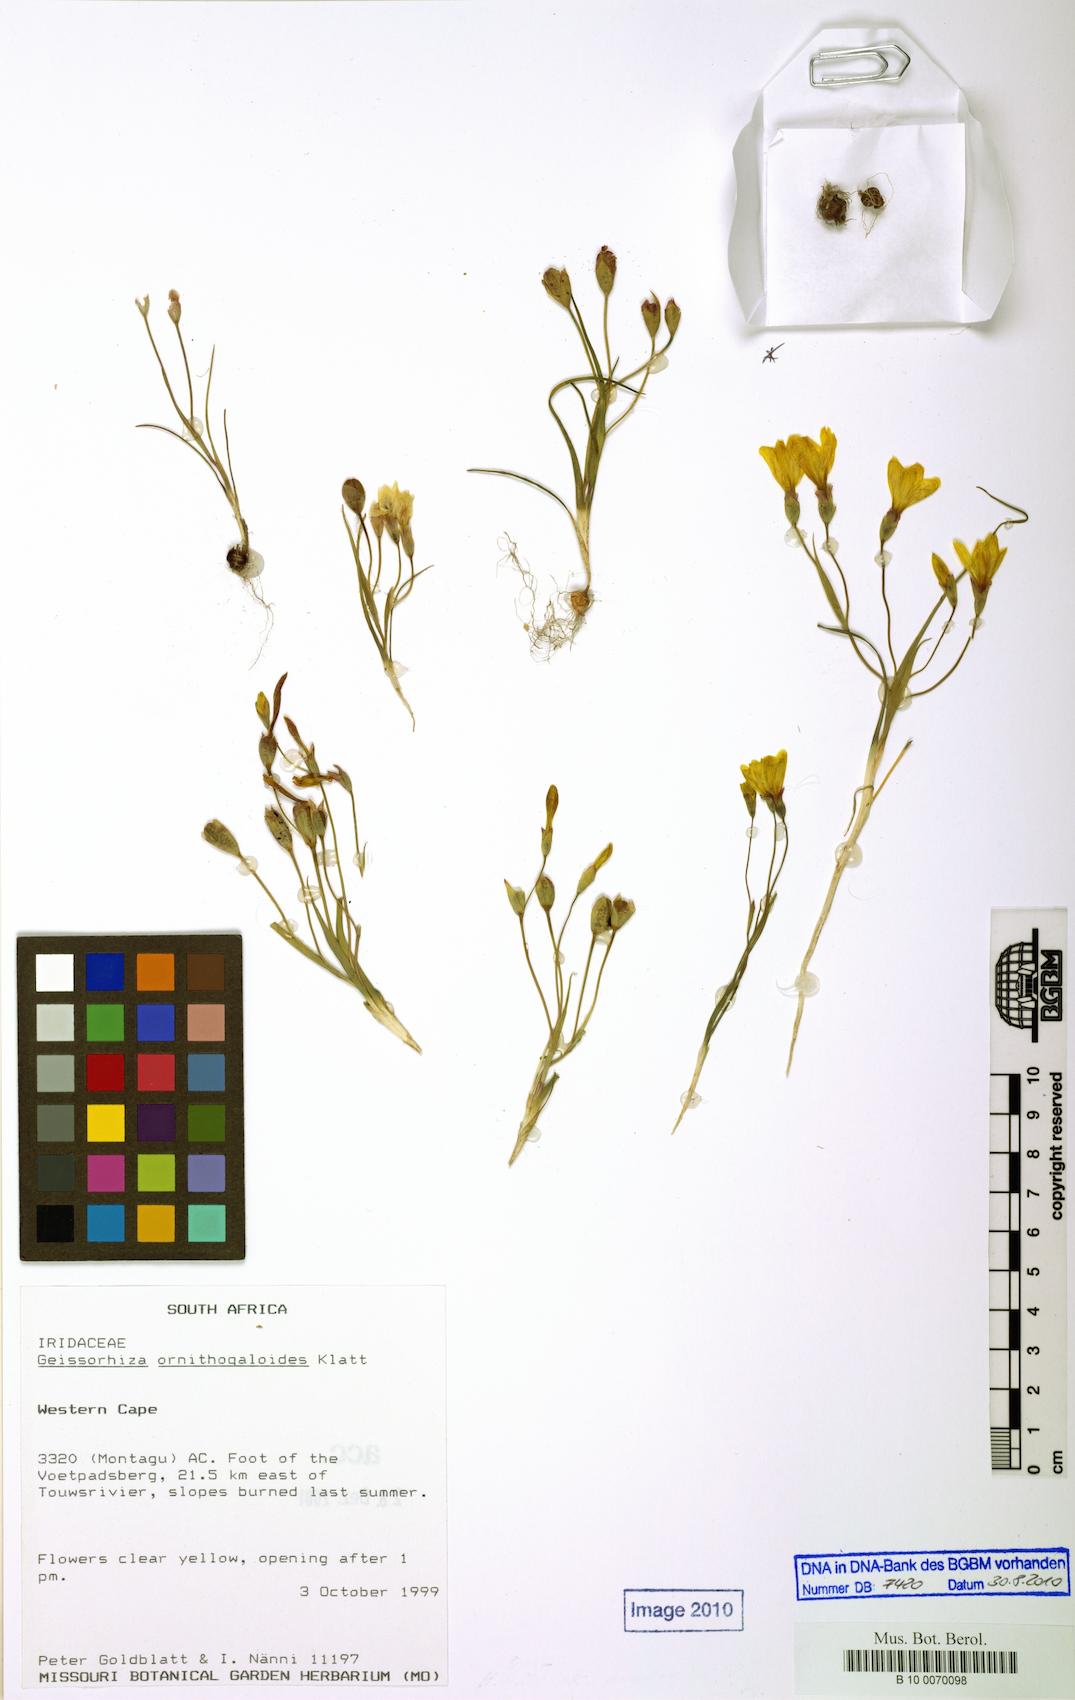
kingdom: Plantae
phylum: Tracheophyta
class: Liliopsida
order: Asparagales
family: Iridaceae
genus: Geissorhiza
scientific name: Geissorhiza ornithogaloides
